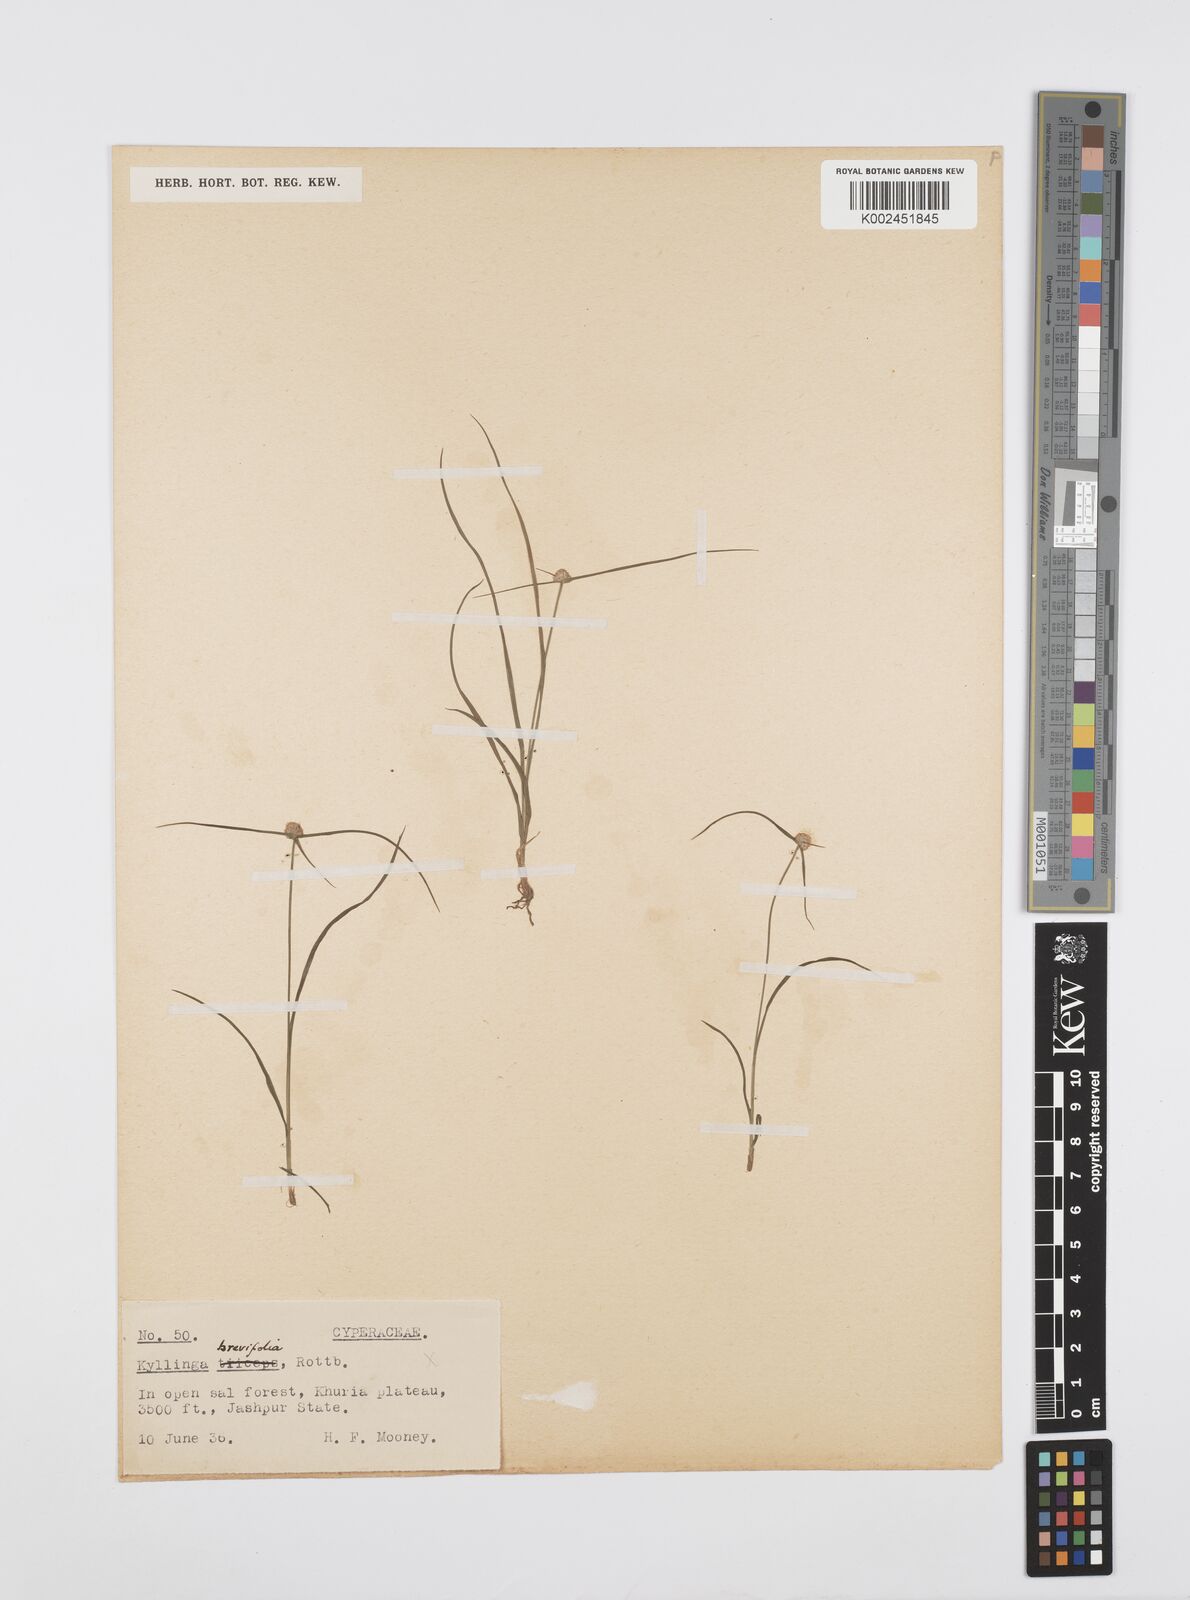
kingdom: Plantae
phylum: Tracheophyta
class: Liliopsida
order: Poales
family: Cyperaceae
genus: Cyperus
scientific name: Cyperus
